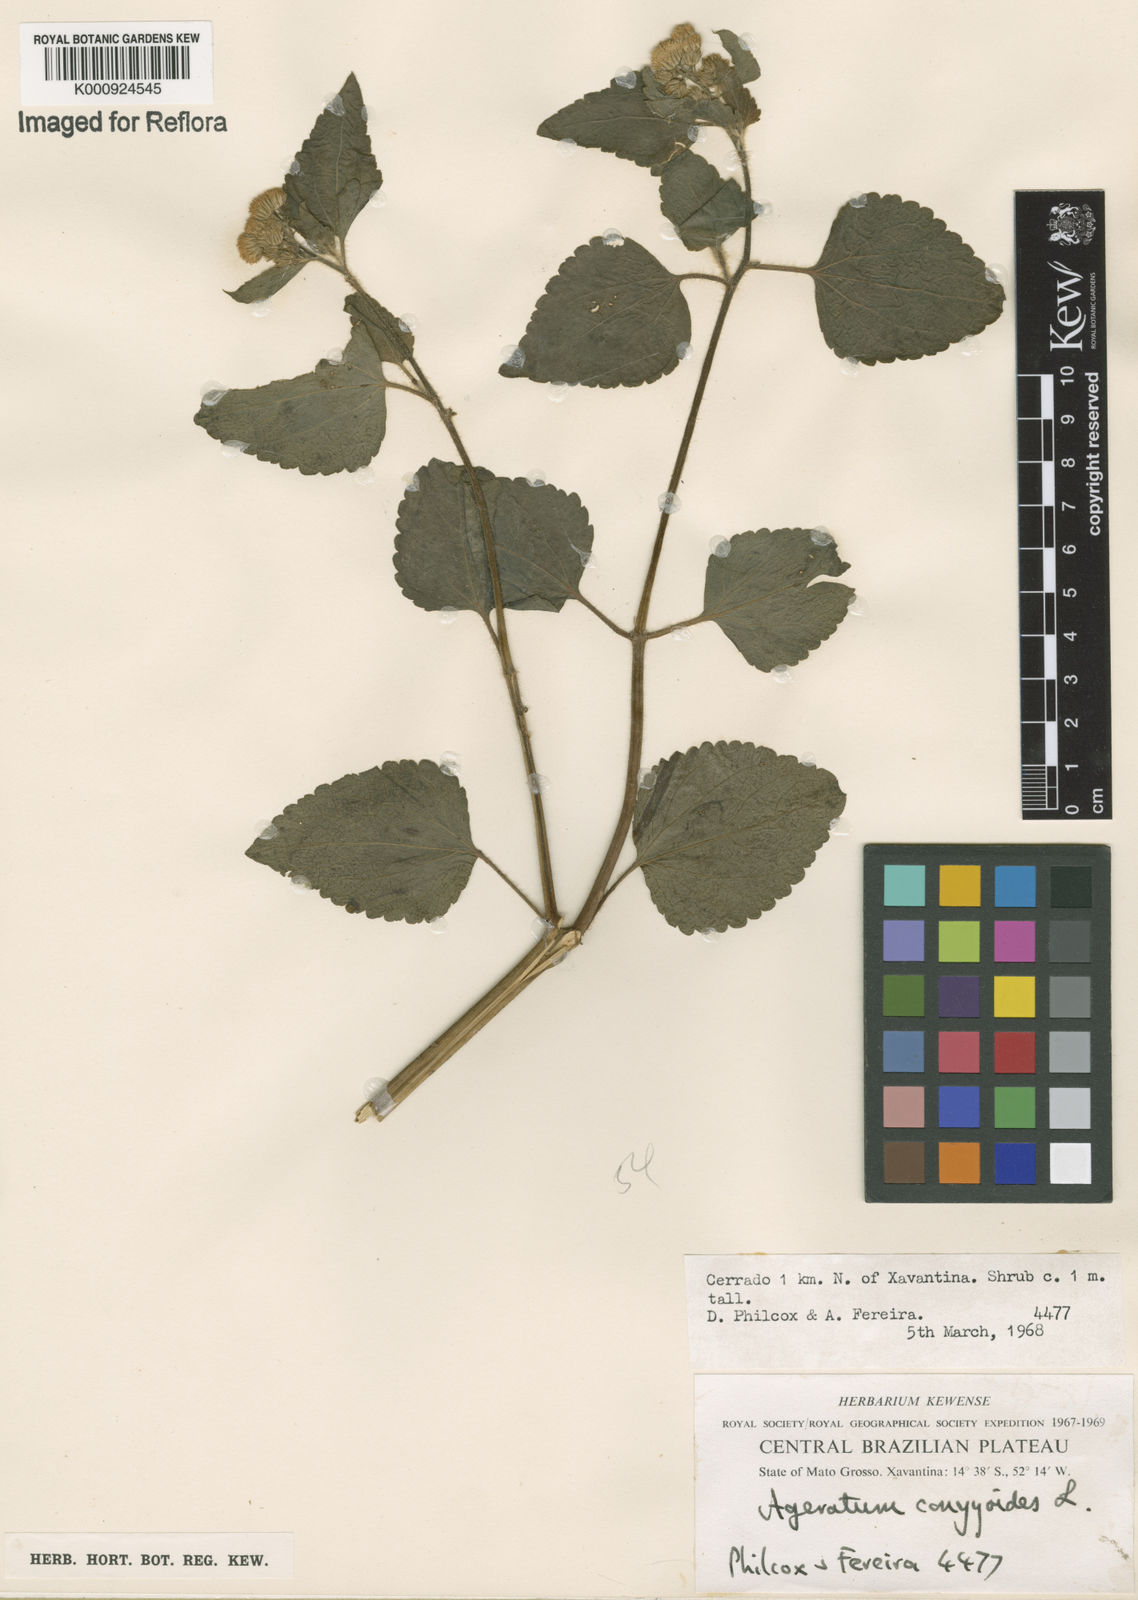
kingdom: Plantae
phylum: Tracheophyta
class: Magnoliopsida
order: Asterales
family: Asteraceae
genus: Ageratum
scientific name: Ageratum conyzoides
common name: Tropical whiteweed
